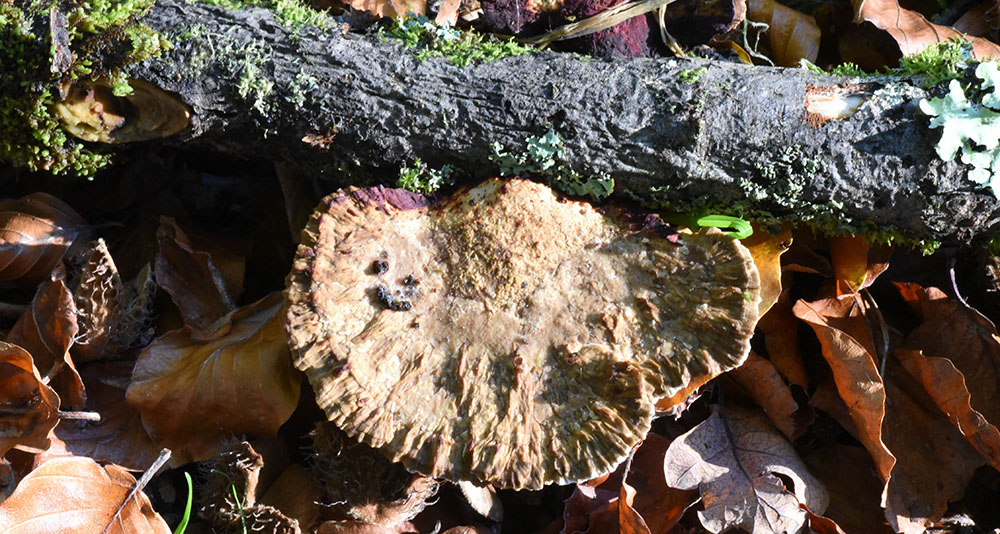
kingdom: Fungi
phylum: Basidiomycota
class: Agaricomycetes
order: Polyporales
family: Polyporaceae
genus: Daedaleopsis
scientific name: Daedaleopsis confragosa
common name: Blushing bracket
